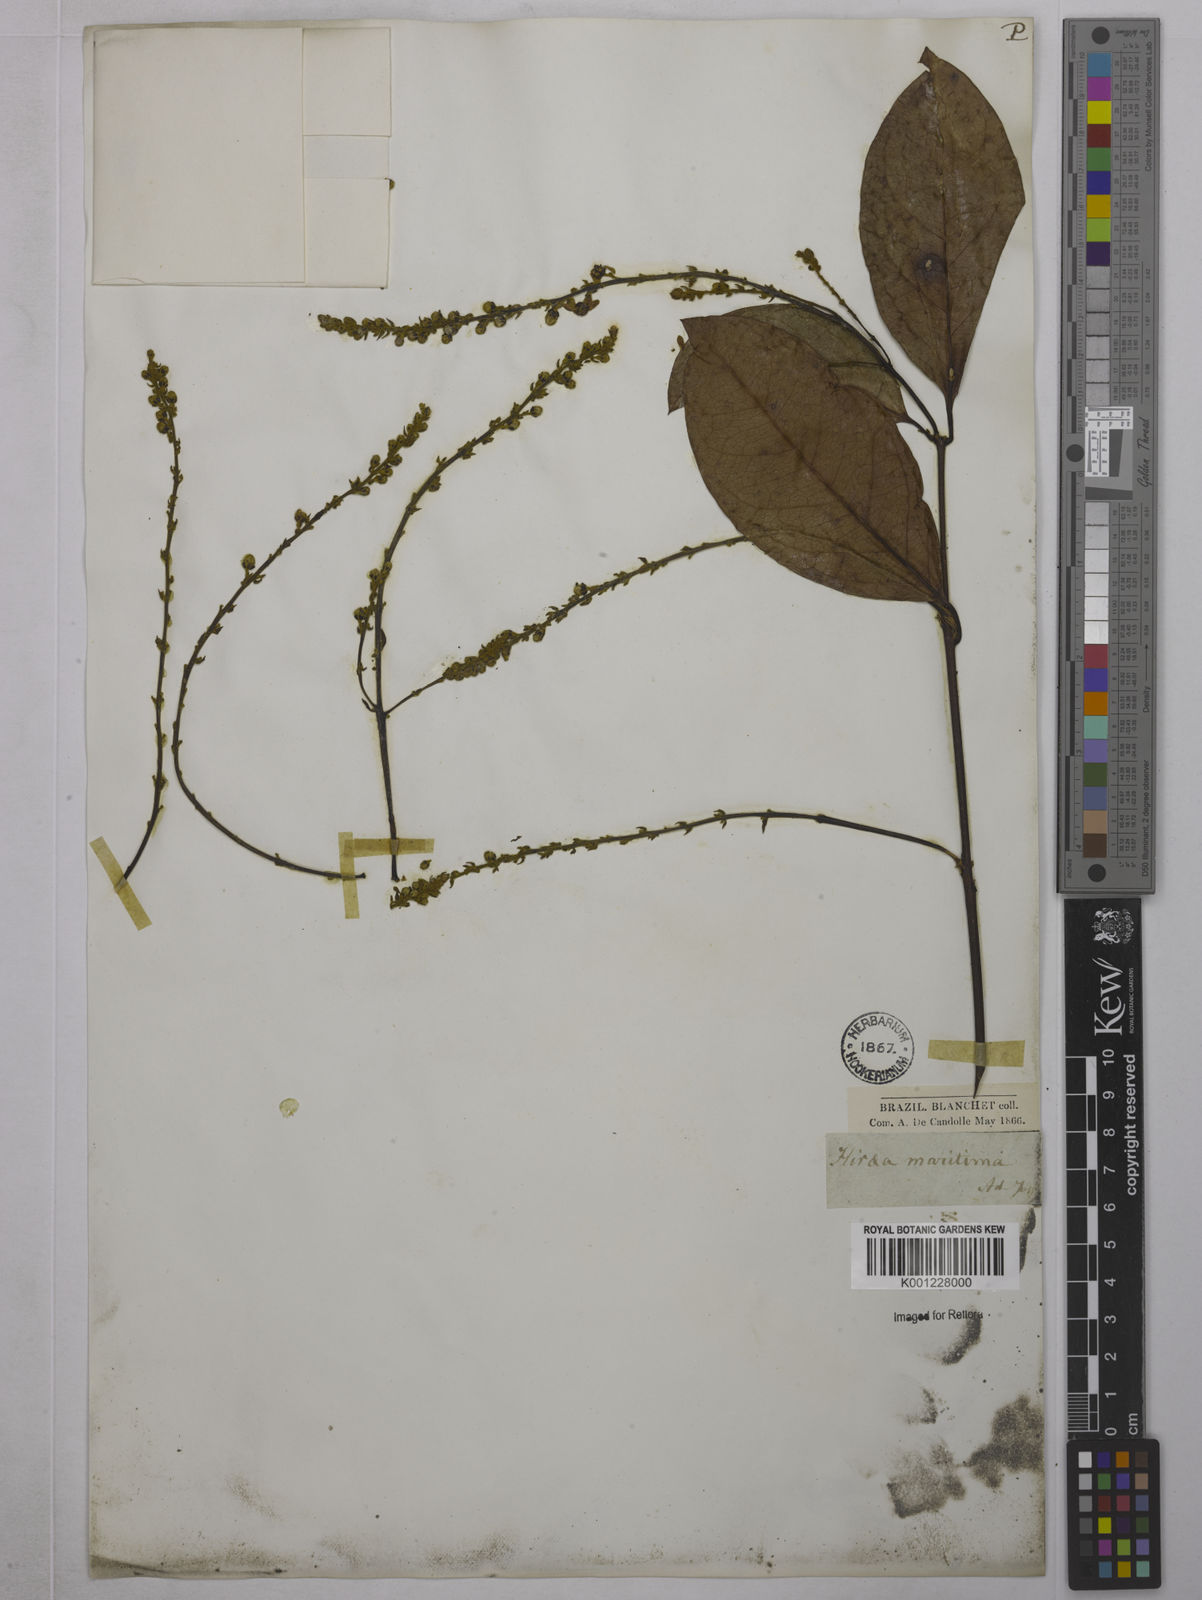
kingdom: Plantae
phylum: Tracheophyta
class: Magnoliopsida
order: Malpighiales
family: Malpighiaceae
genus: Amorimia
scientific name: Amorimia rigida
